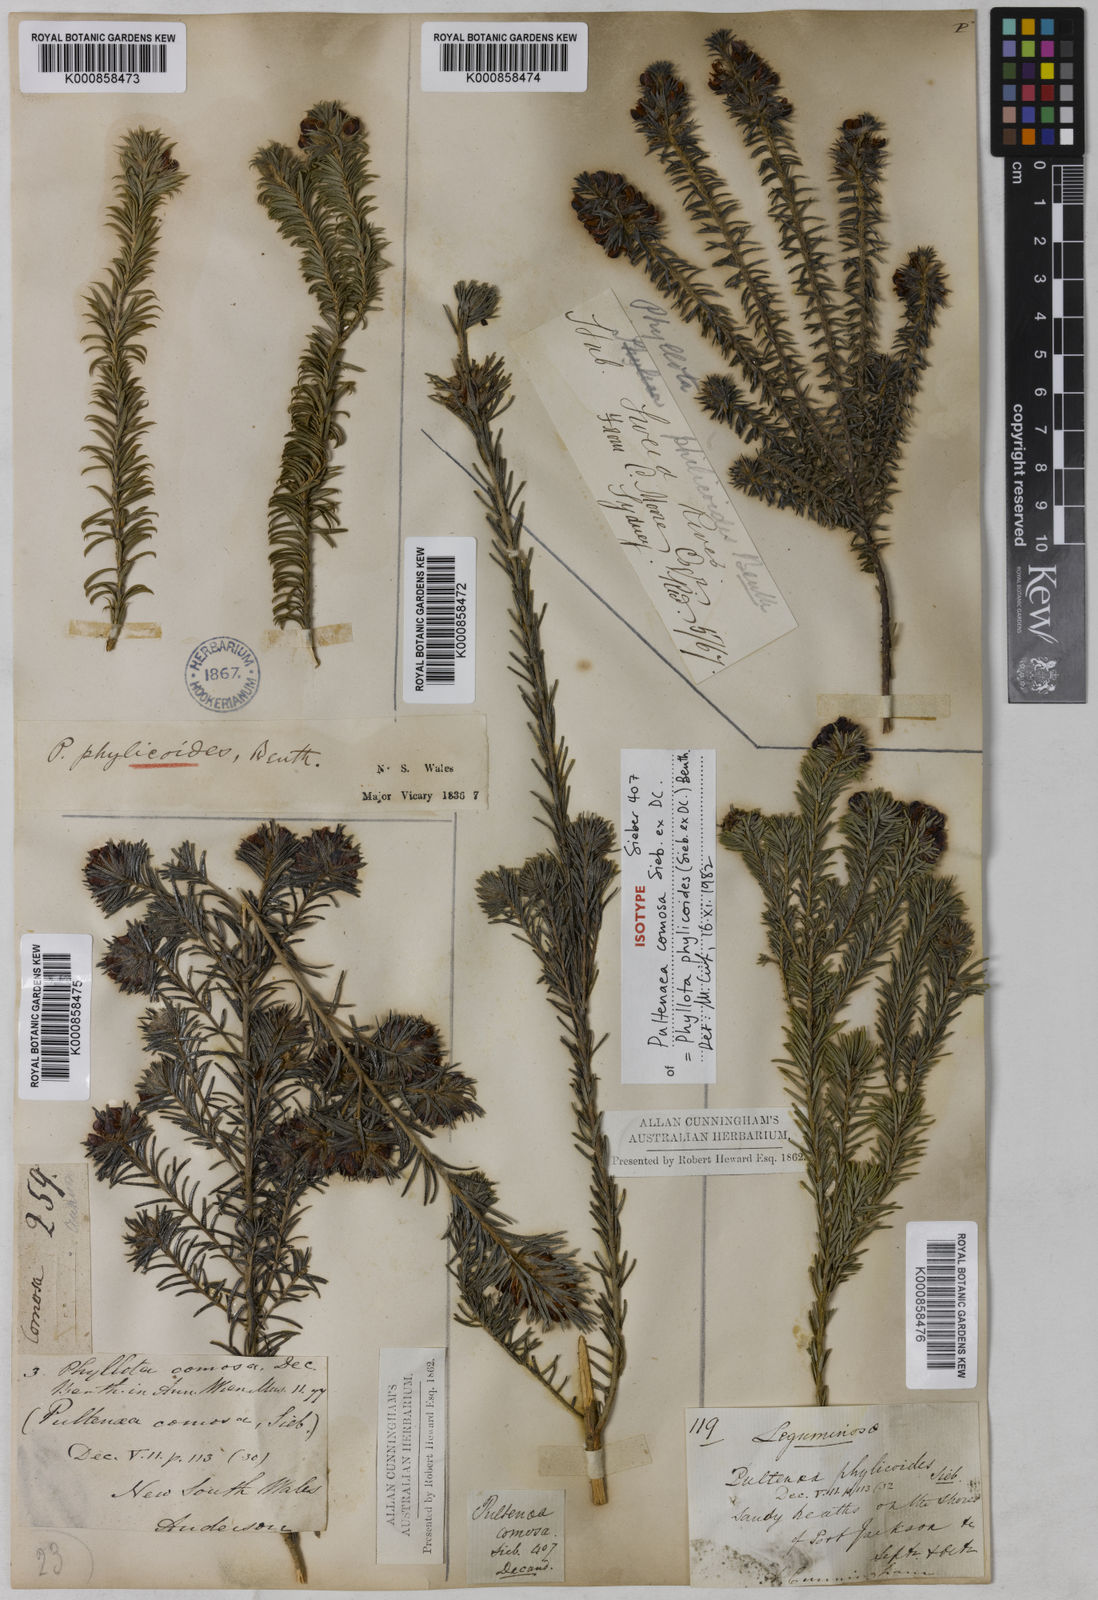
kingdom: Plantae
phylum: Tracheophyta
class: Magnoliopsida
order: Fabales
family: Fabaceae
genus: Phyllota
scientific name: Phyllota phylicoides
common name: Heath phyllota
